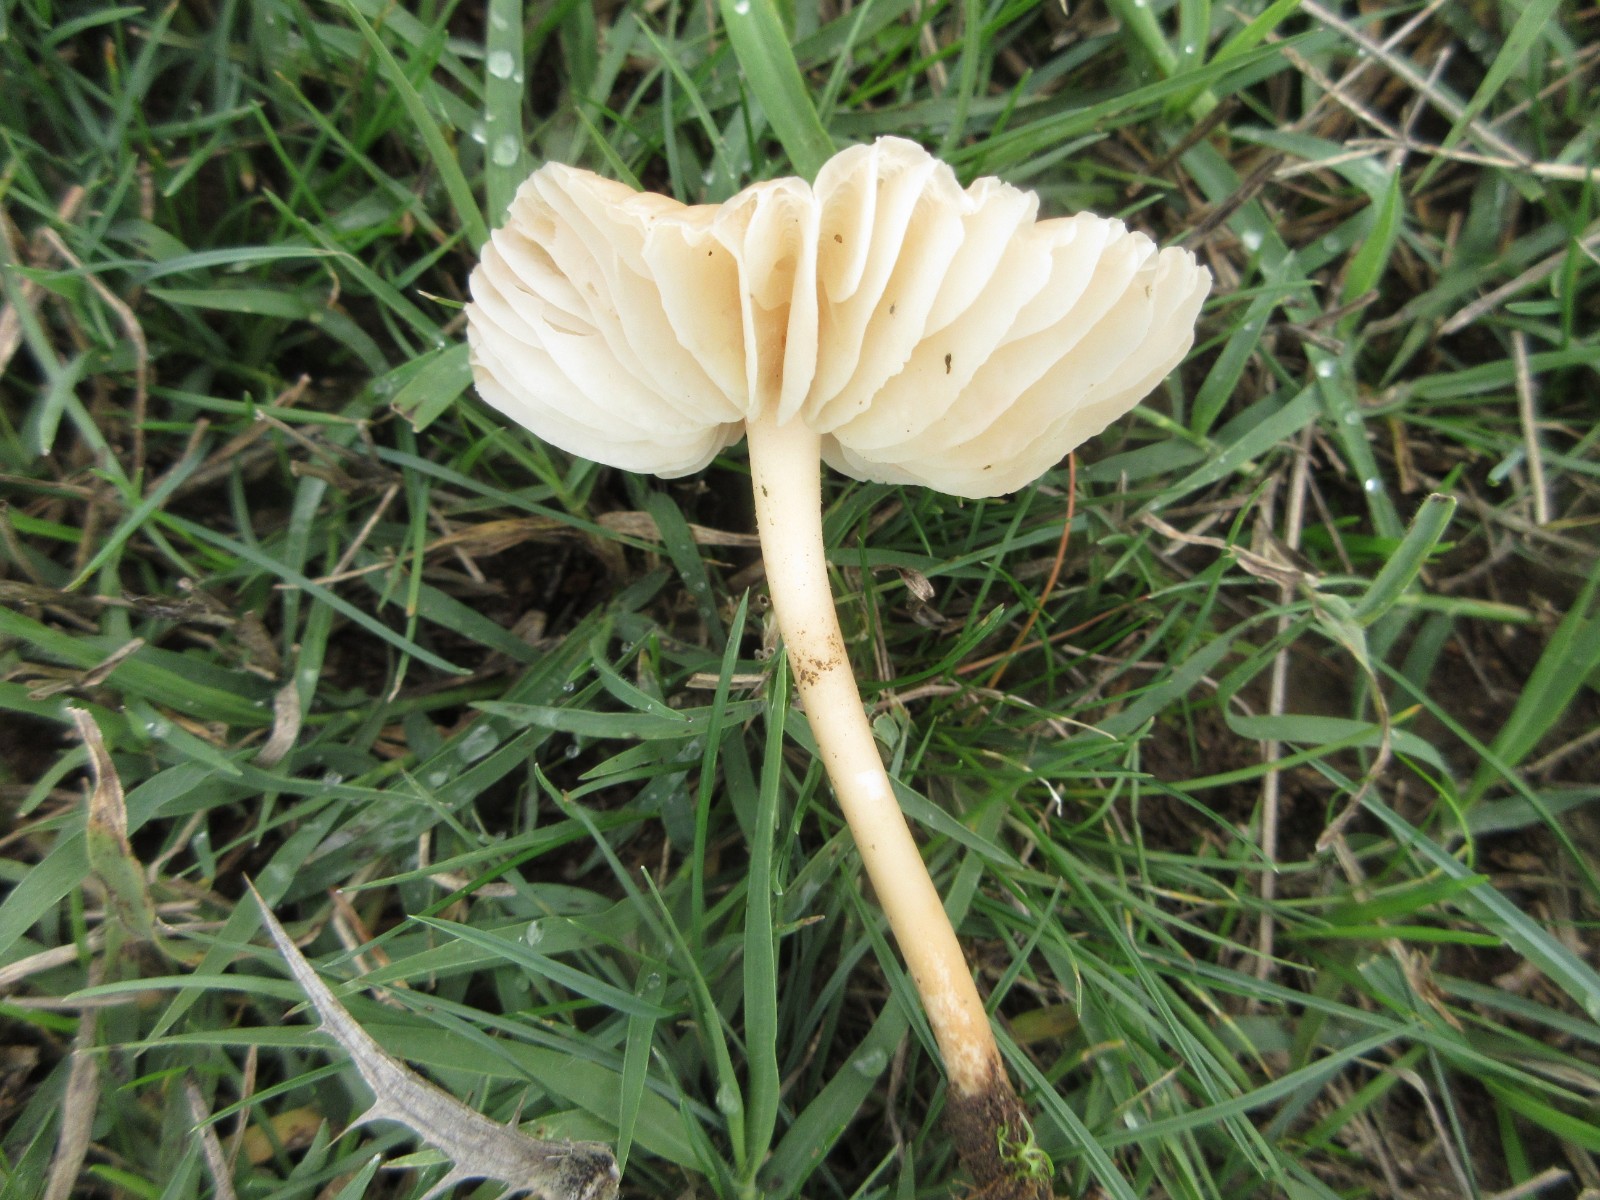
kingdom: Fungi
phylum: Basidiomycota
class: Agaricomycetes
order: Agaricales
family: Marasmiaceae
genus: Marasmius
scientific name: Marasmius oreades
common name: elledans-bruskhat
